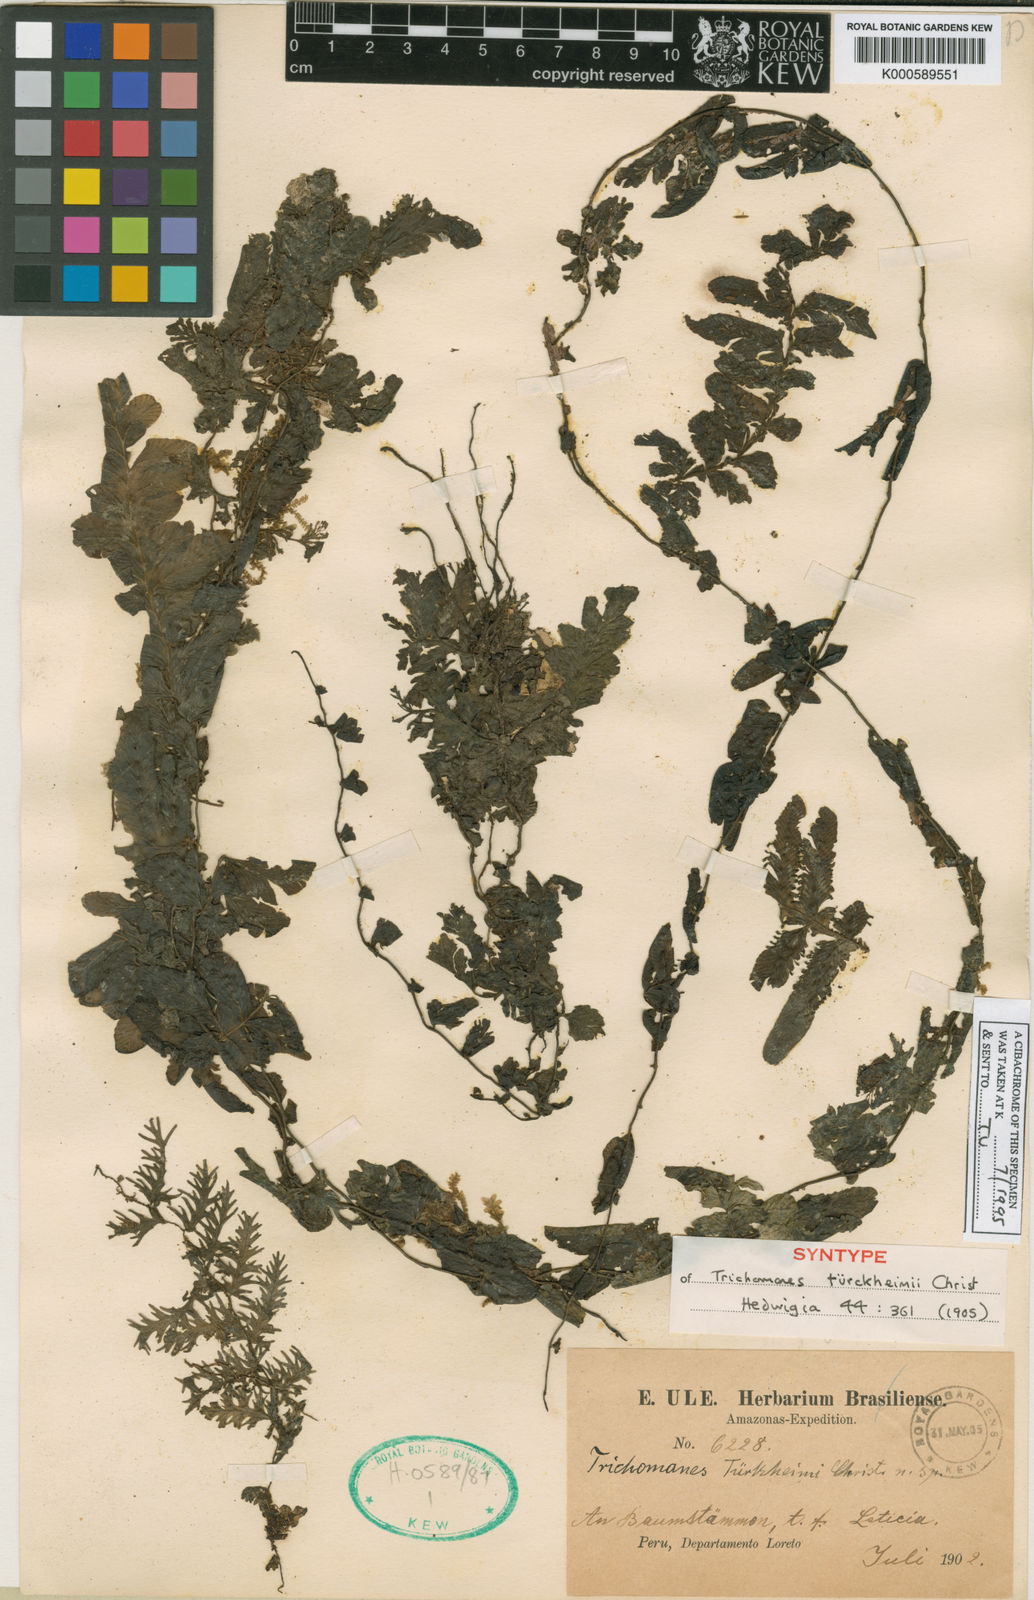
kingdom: Plantae
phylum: Tracheophyta
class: Polypodiopsida
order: Hymenophyllales
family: Hymenophyllaceae
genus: Trichomanes
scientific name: Trichomanes tuerckheimii
